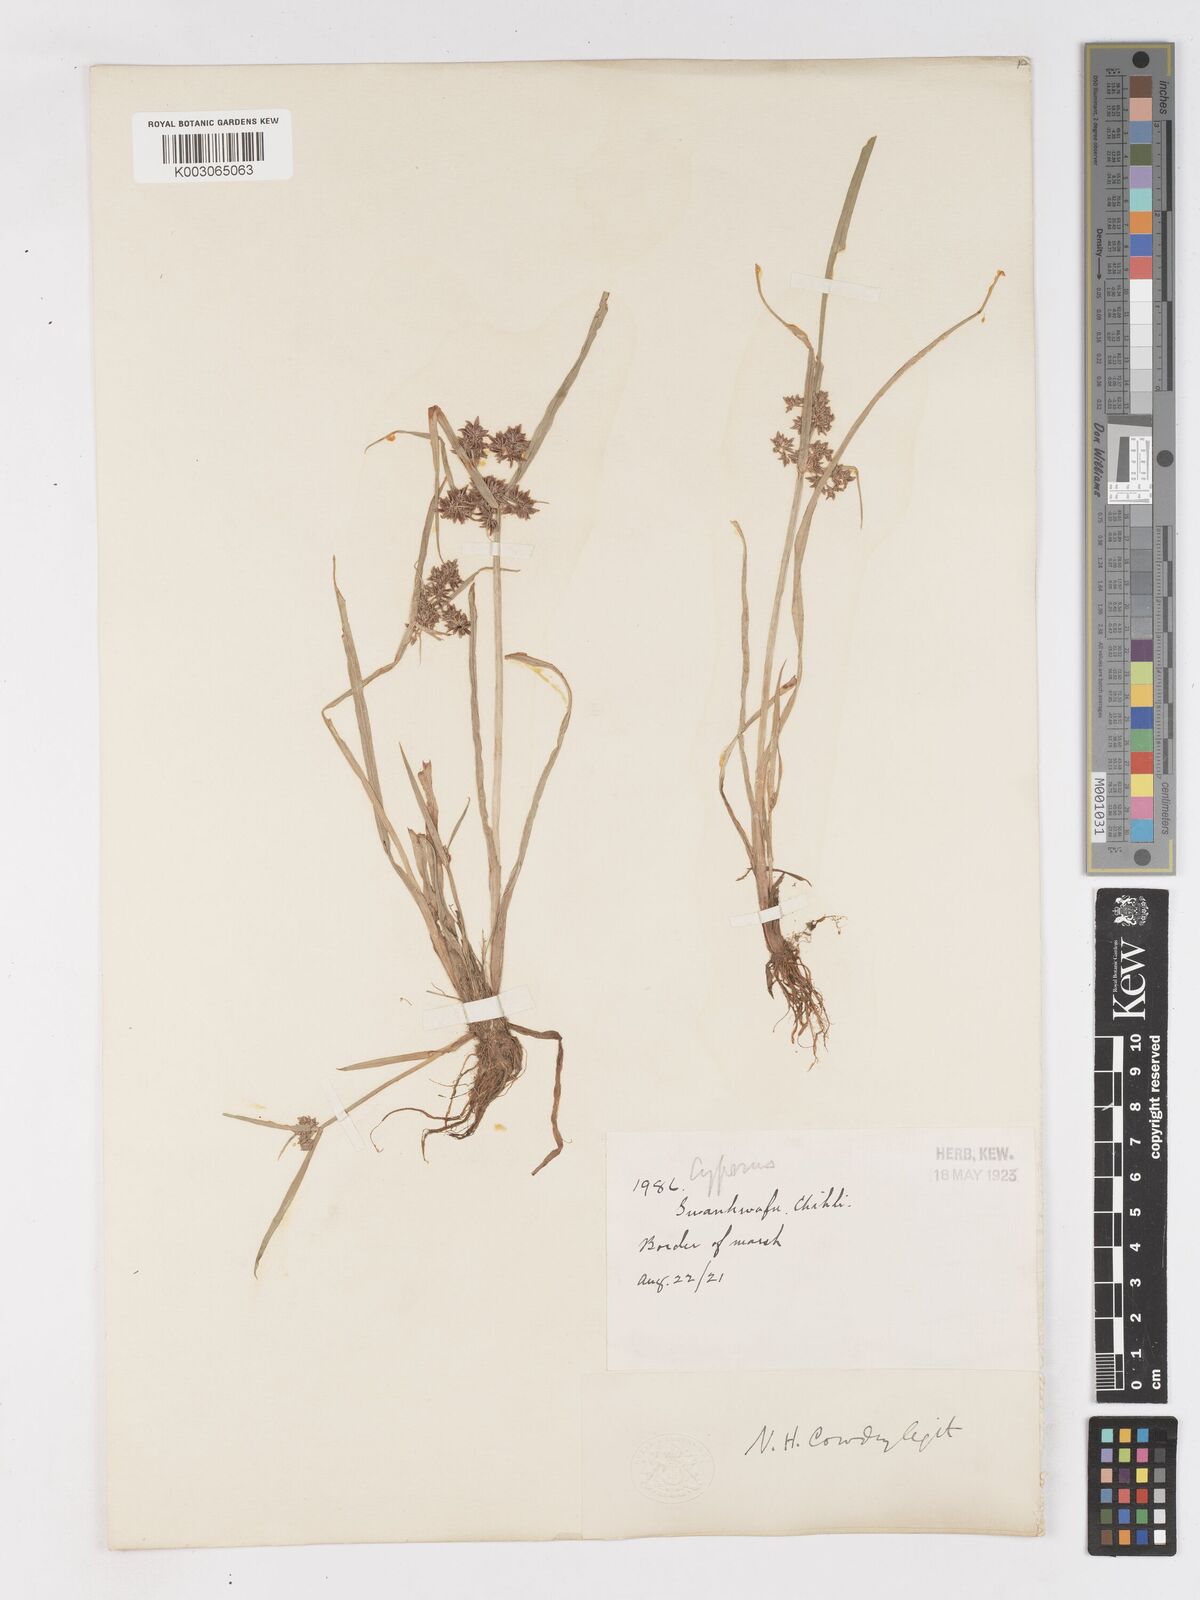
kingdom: Plantae
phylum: Tracheophyta
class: Liliopsida
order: Poales
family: Cyperaceae
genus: Cyperus
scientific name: Cyperus fuscus
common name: Brown galingale
